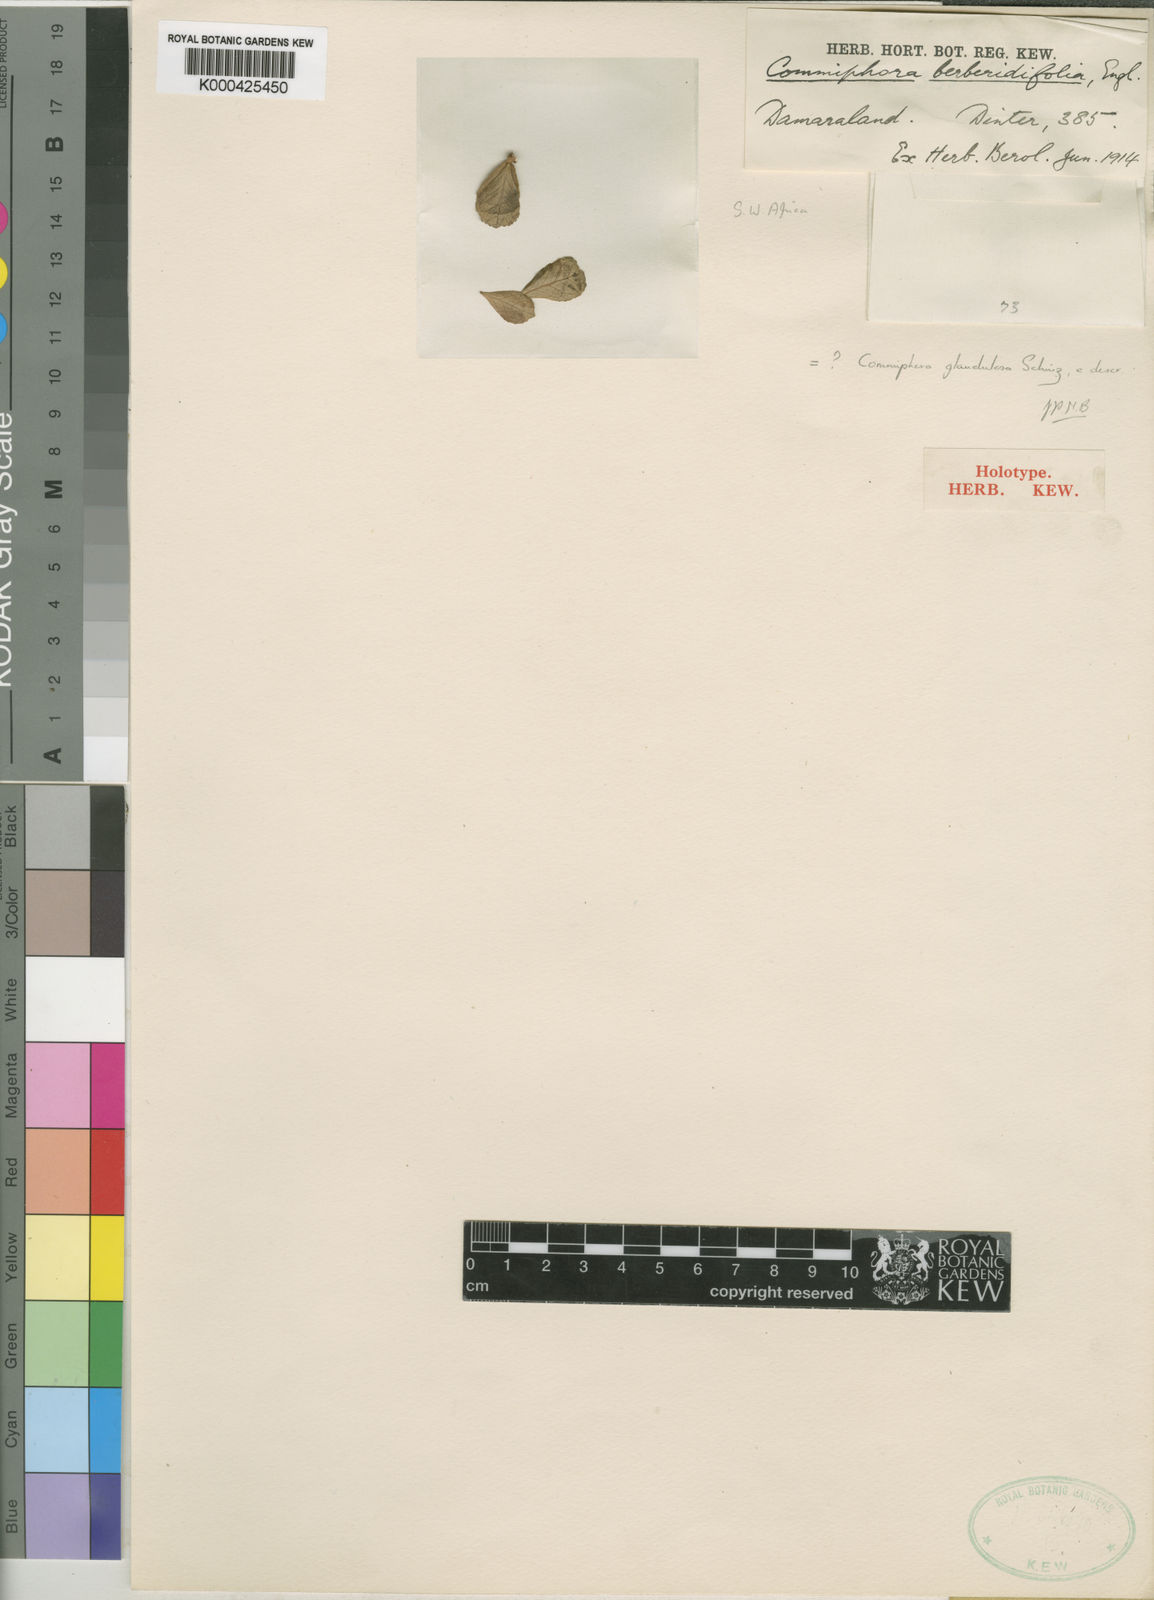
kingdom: Plantae
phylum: Tracheophyta
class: Magnoliopsida
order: Sapindales
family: Burseraceae
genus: Commiphora
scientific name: Commiphora pyracanthoides
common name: Cork tree
